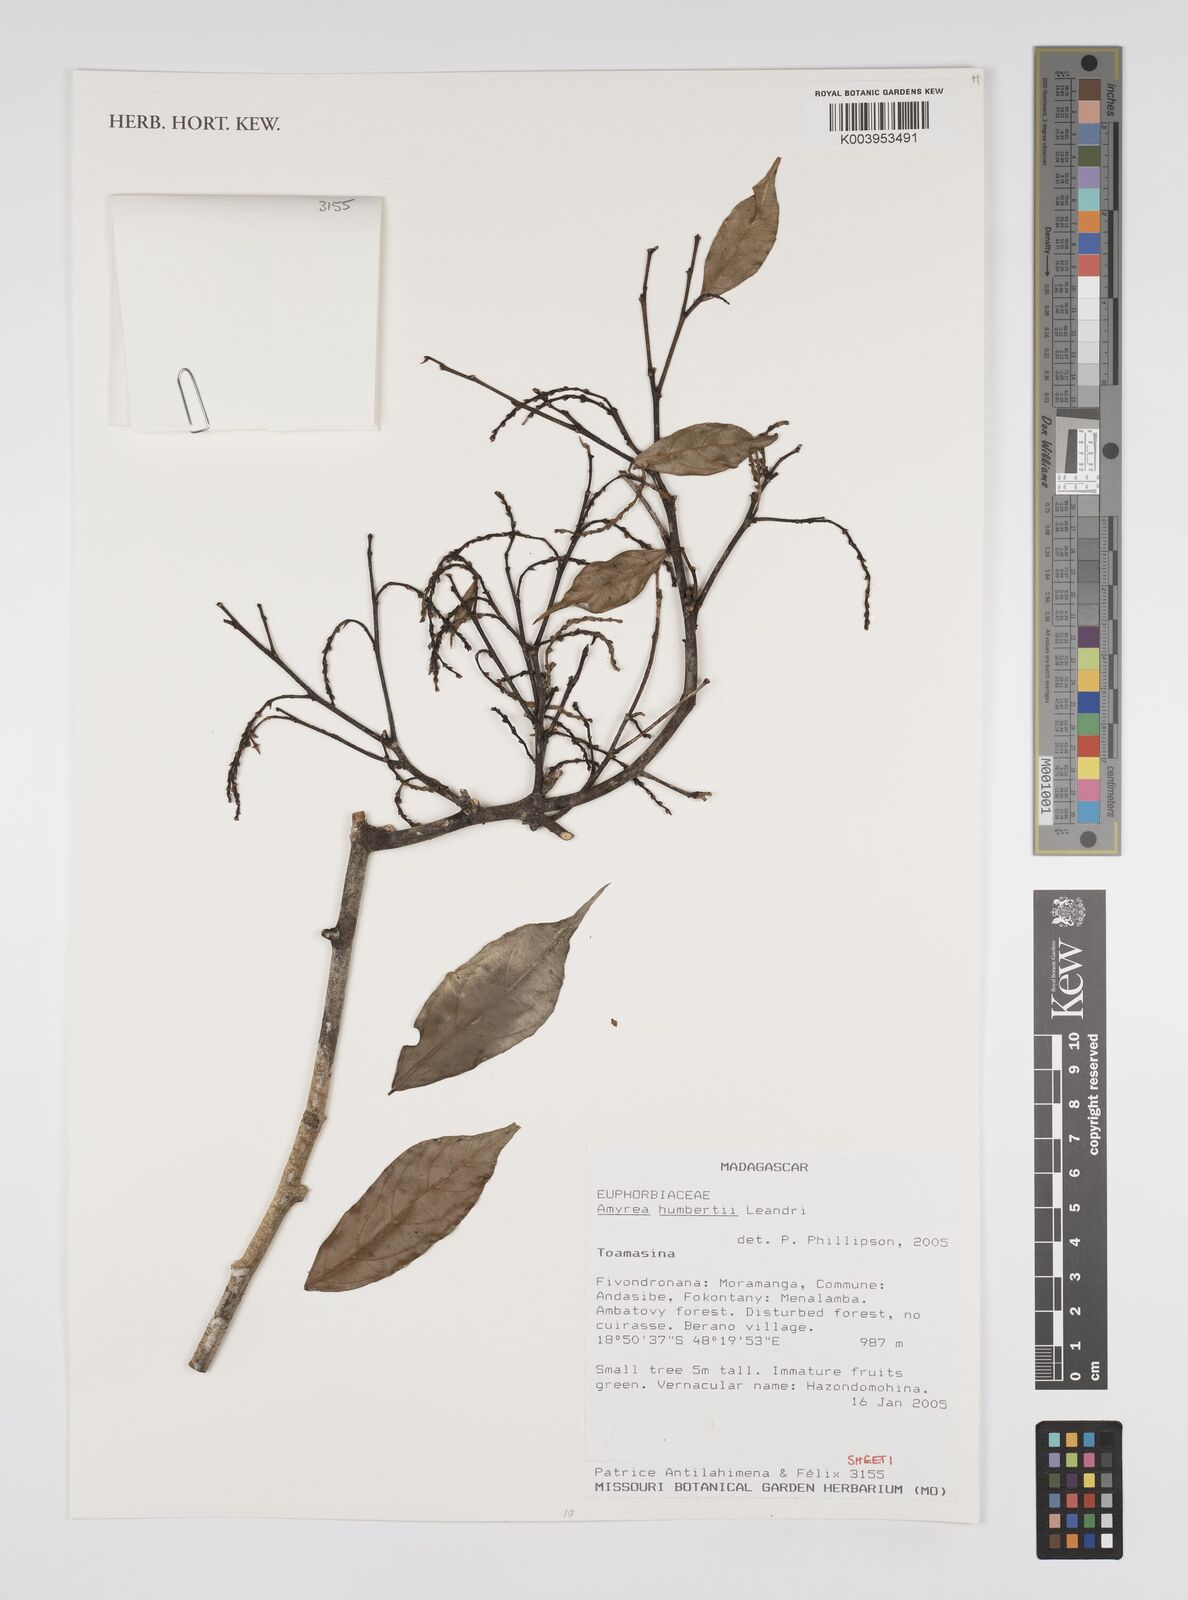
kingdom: Plantae
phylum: Tracheophyta
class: Magnoliopsida
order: Malpighiales
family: Euphorbiaceae
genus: Amyrea
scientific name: Amyrea humbertii
